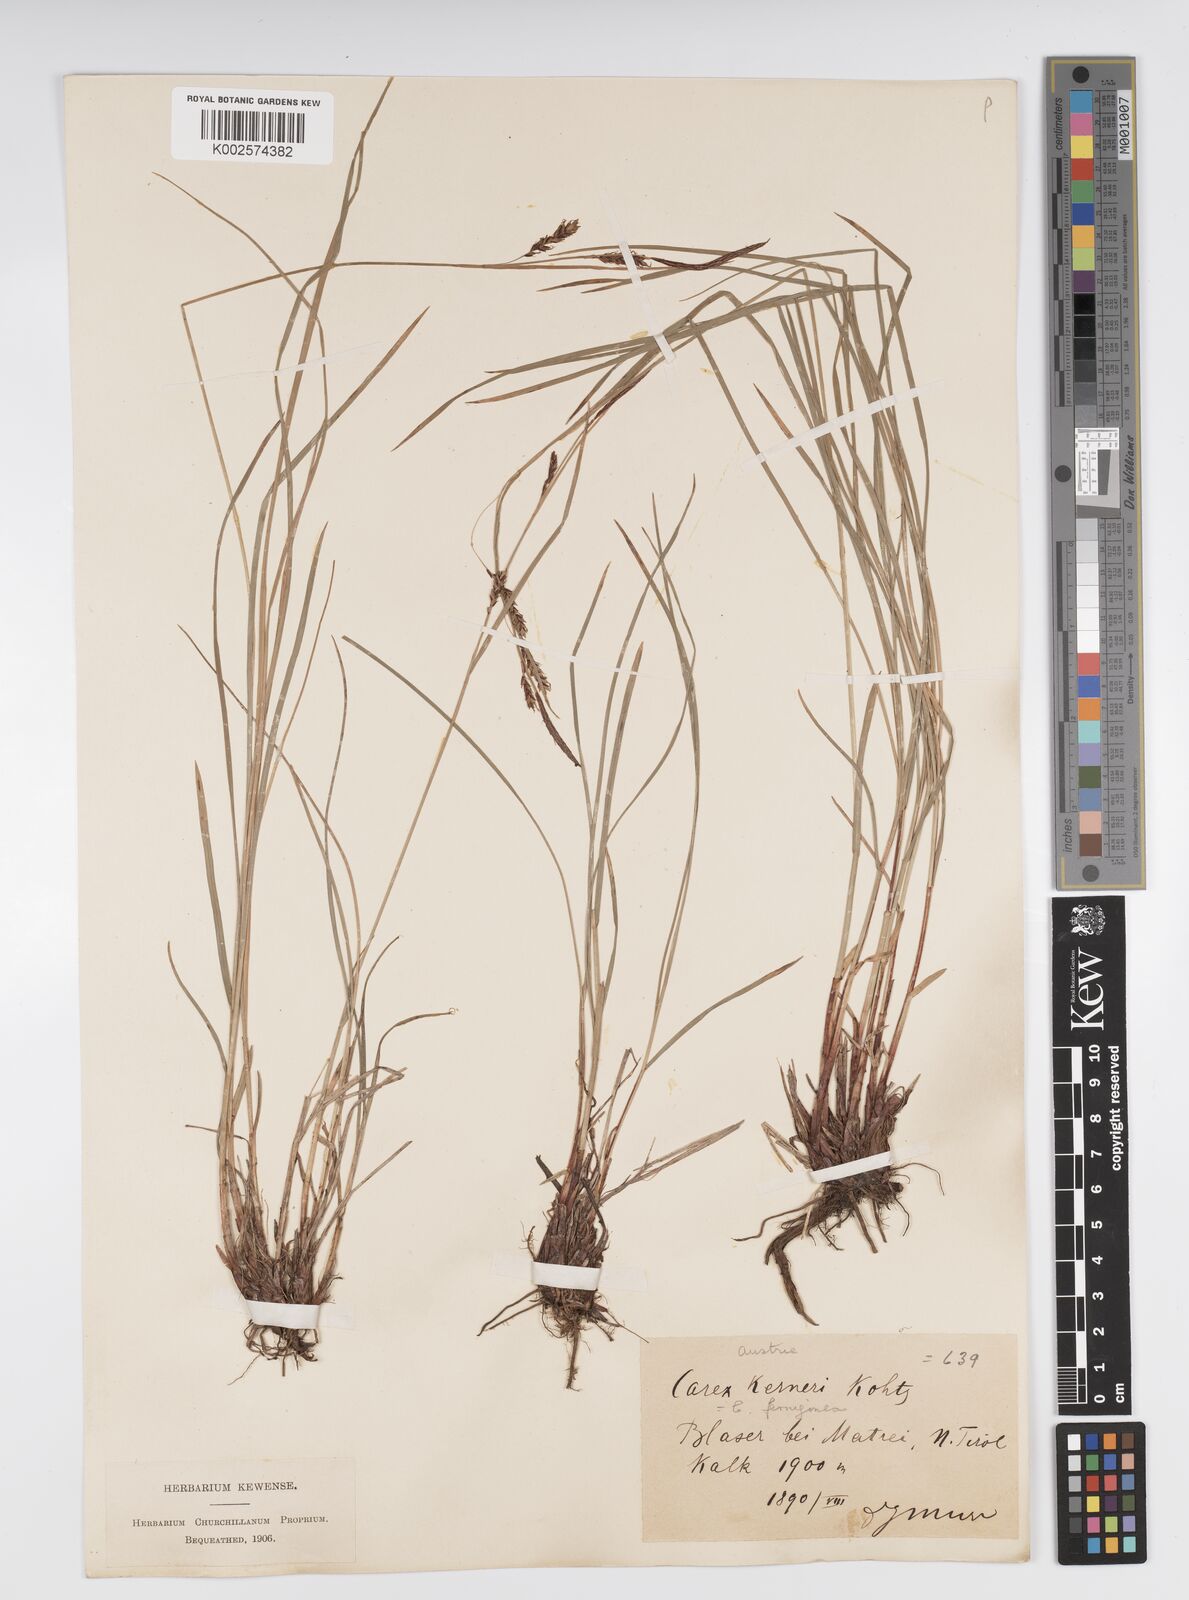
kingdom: Plantae
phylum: Tracheophyta
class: Liliopsida
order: Poales
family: Cyperaceae
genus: Carex
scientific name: Carex firma
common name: Dwarf pillow sedge
